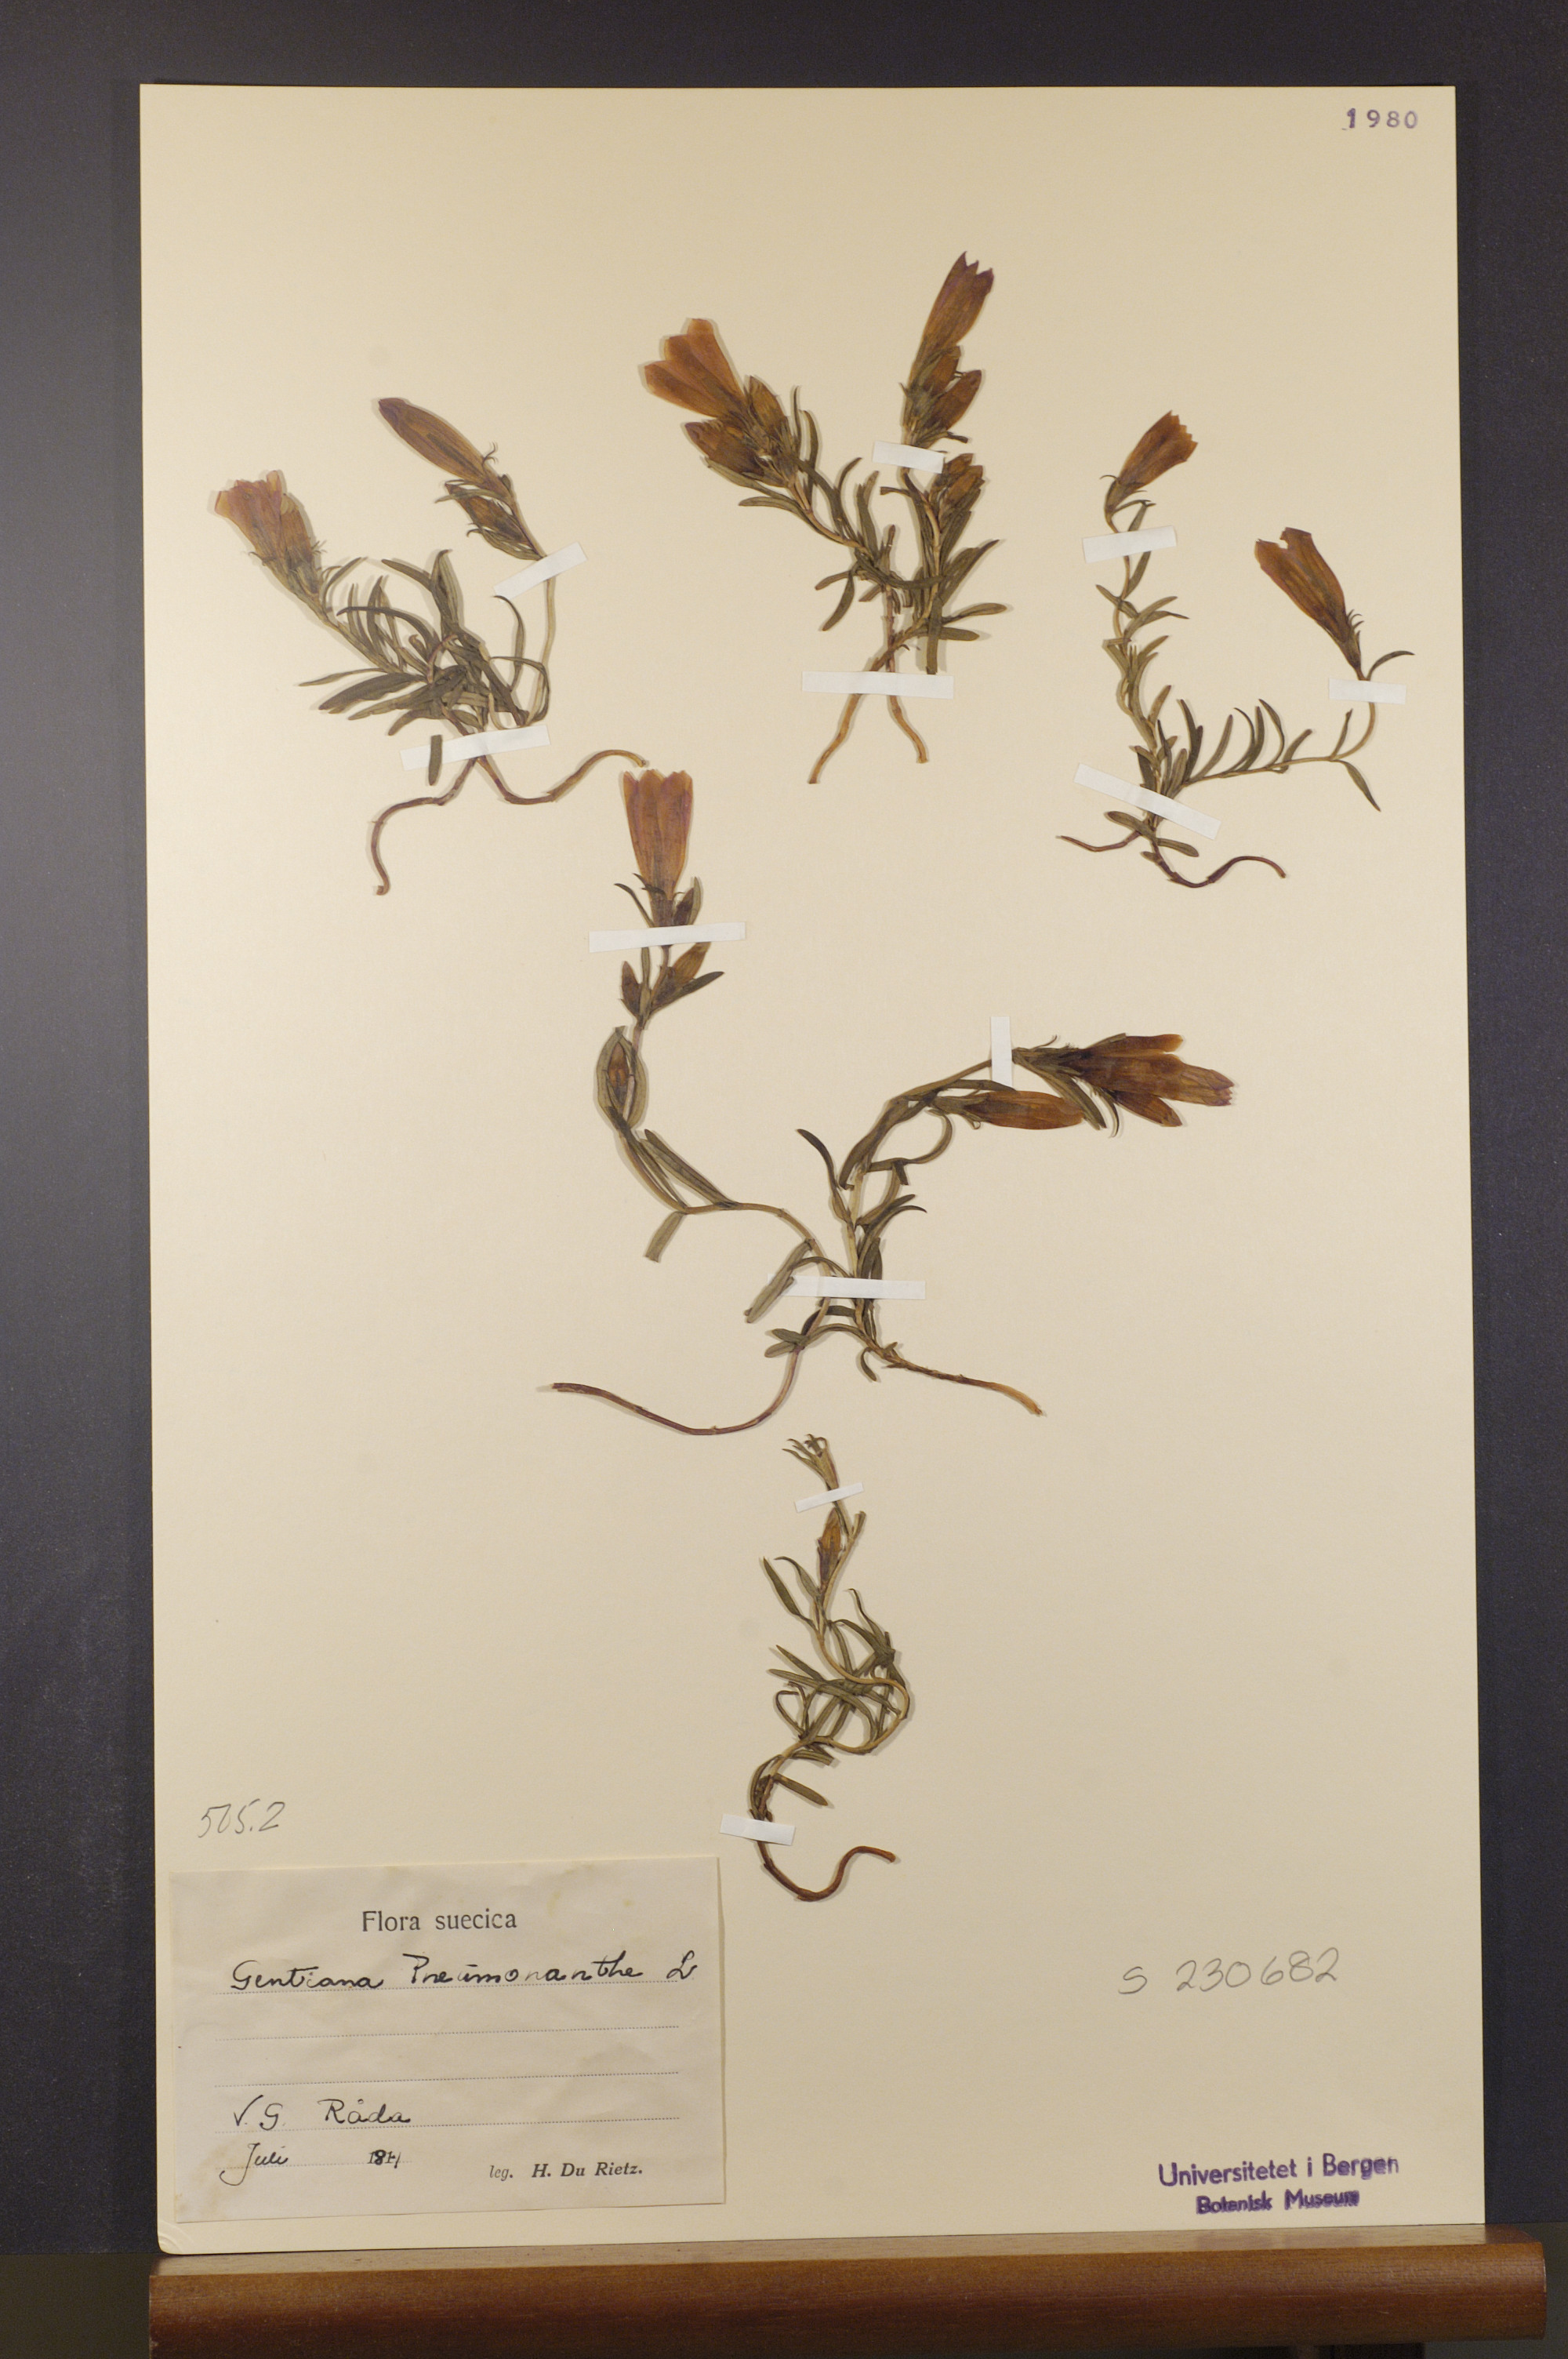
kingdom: Plantae
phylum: Tracheophyta
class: Magnoliopsida
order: Gentianales
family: Gentianaceae
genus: Gentiana
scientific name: Gentiana pneumonanthe
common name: Marsh gentian
